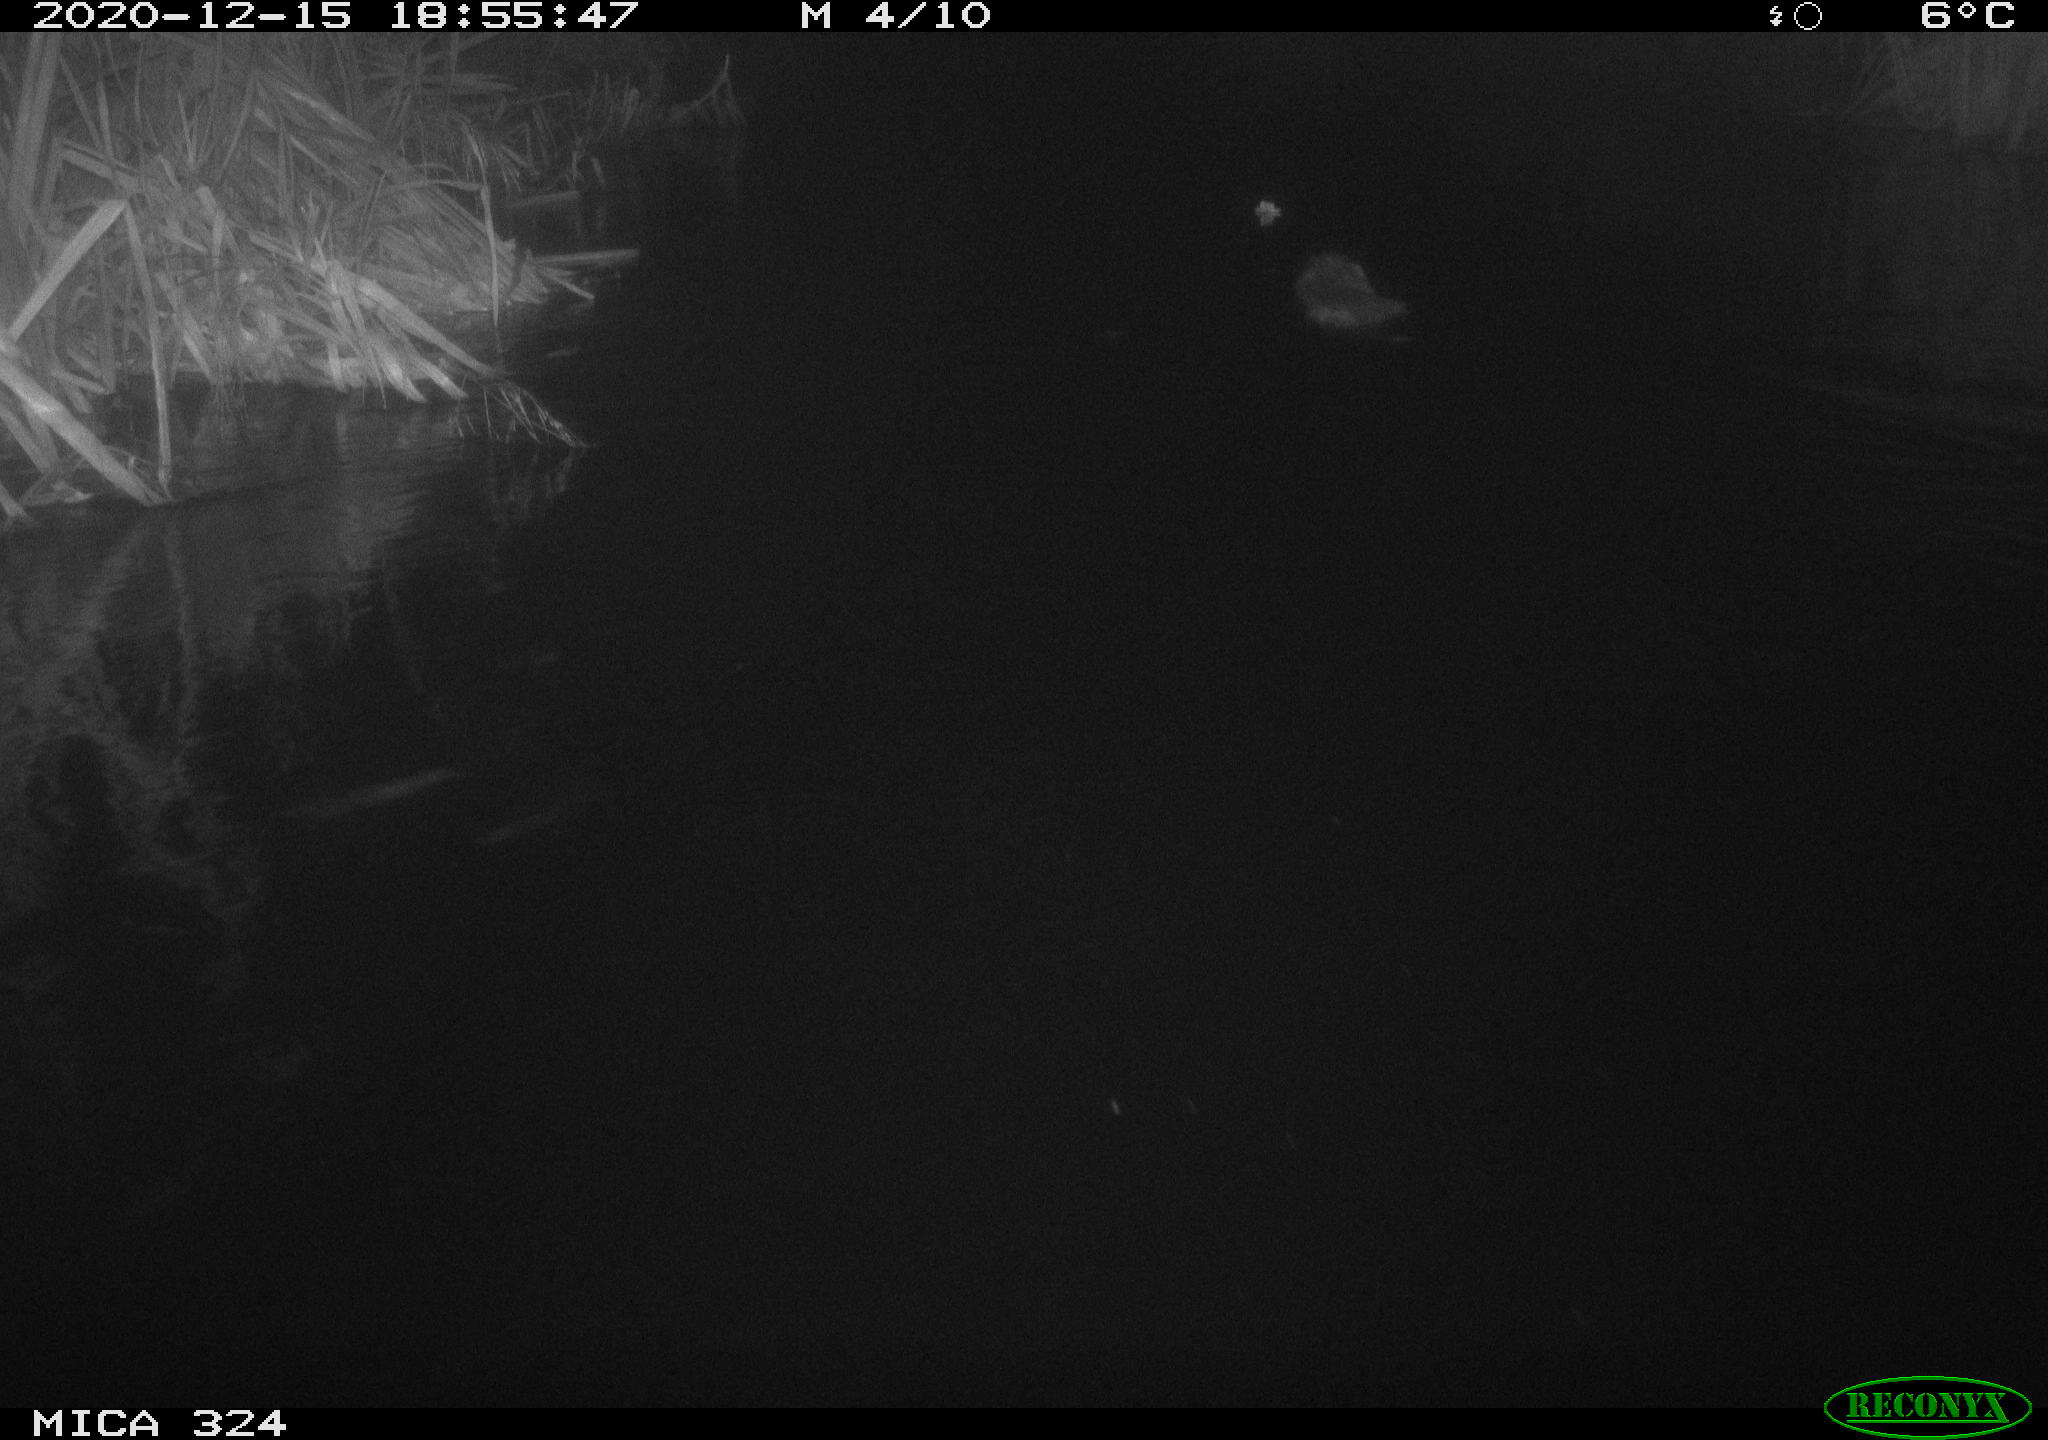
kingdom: Animalia
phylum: Chordata
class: Mammalia
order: Rodentia
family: Castoridae
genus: Castor
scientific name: Castor fiber
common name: Eurasian beaver
